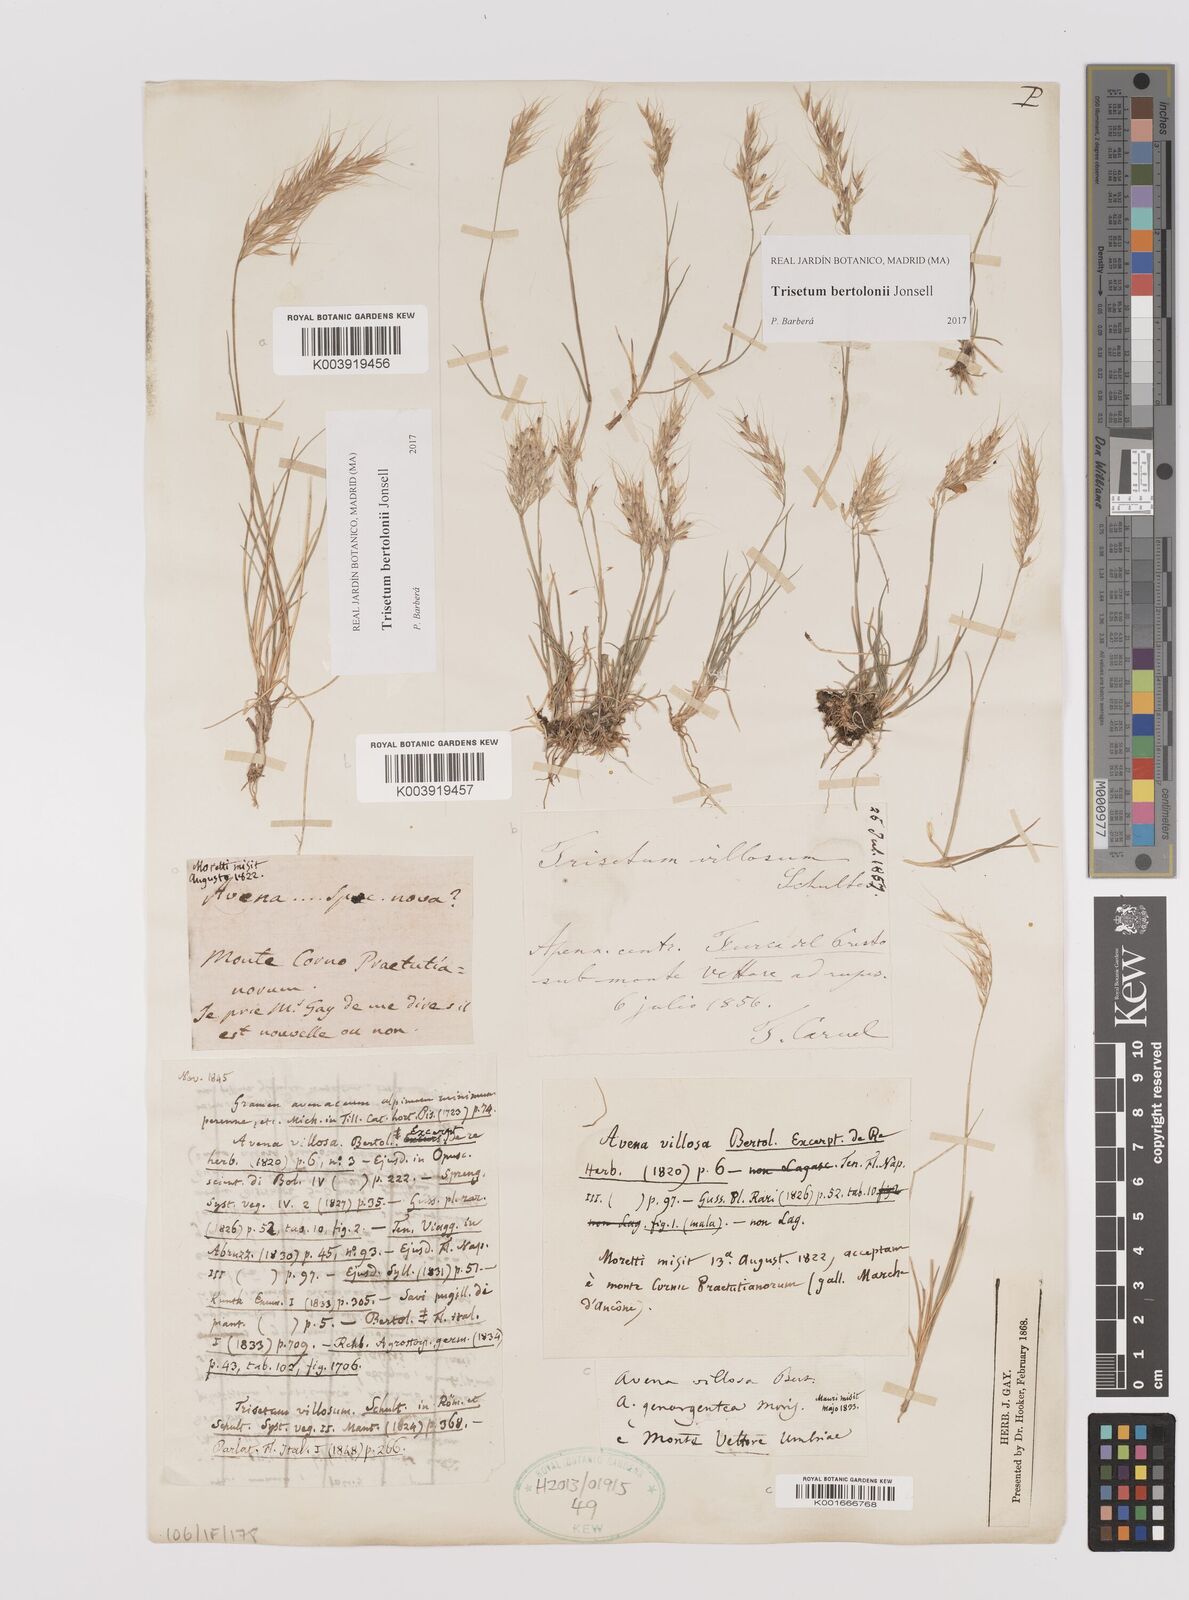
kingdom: Plantae
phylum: Tracheophyta
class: Liliopsida
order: Poales
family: Poaceae
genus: Trisetum
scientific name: Trisetum bertolonii
